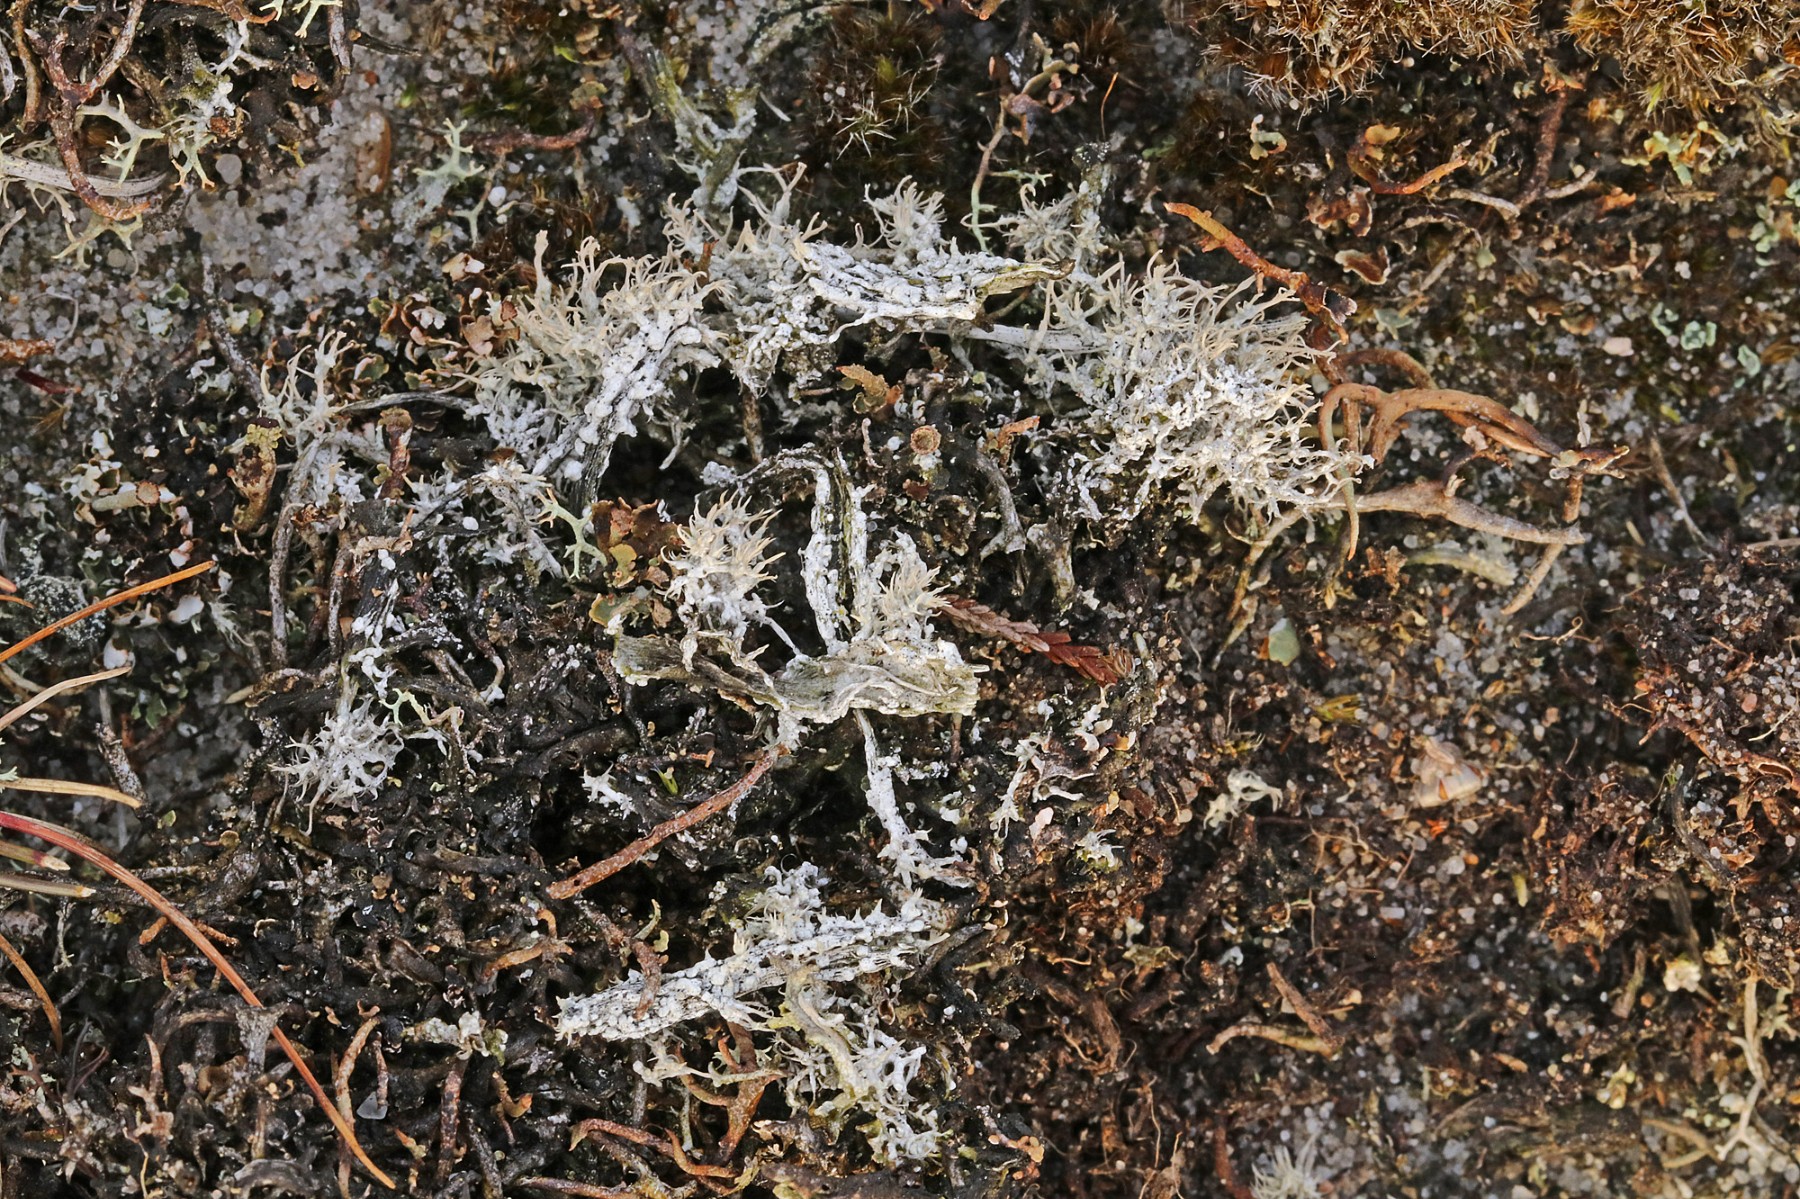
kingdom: Fungi
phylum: Ascomycota
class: Lecanoromycetes
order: Pertusariales
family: Ochrolechiaceae
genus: Ochrolechia
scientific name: Ochrolechia frigida
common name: fjeld-blegskivelav
